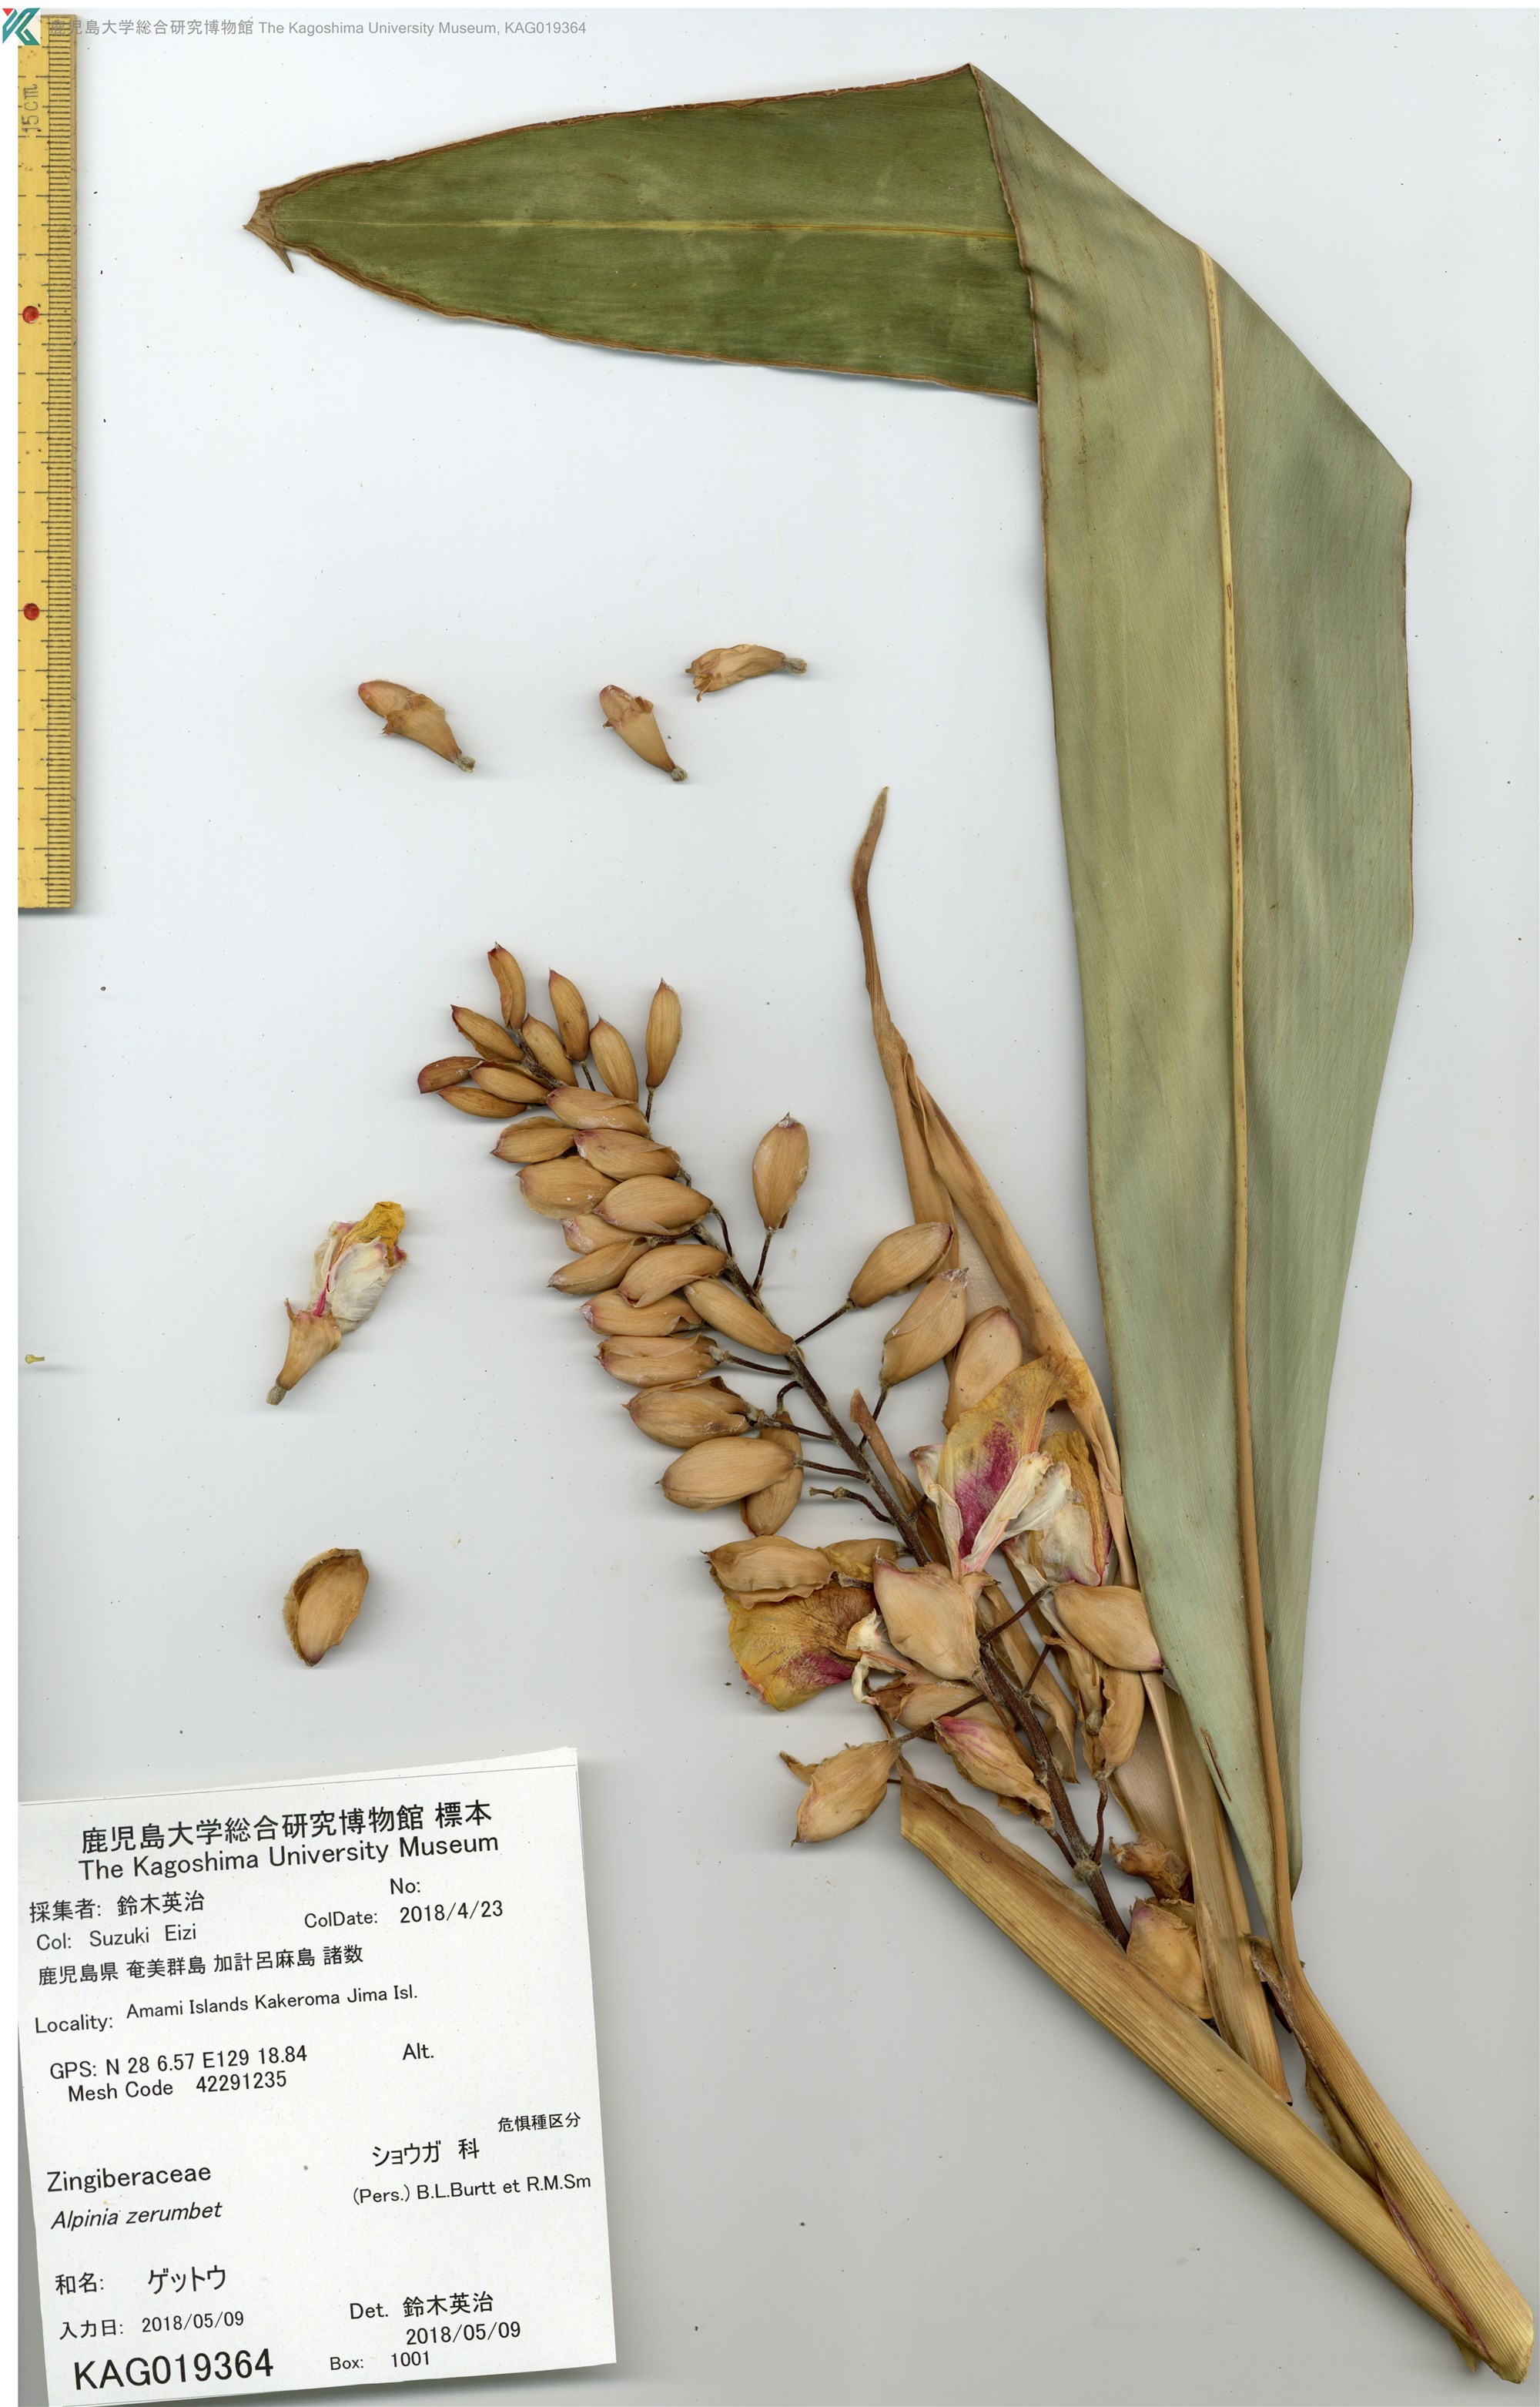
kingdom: Plantae
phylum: Tracheophyta
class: Liliopsida
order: Zingiberales
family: Zingiberaceae
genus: Alpinia
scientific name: Alpinia zerumbet
